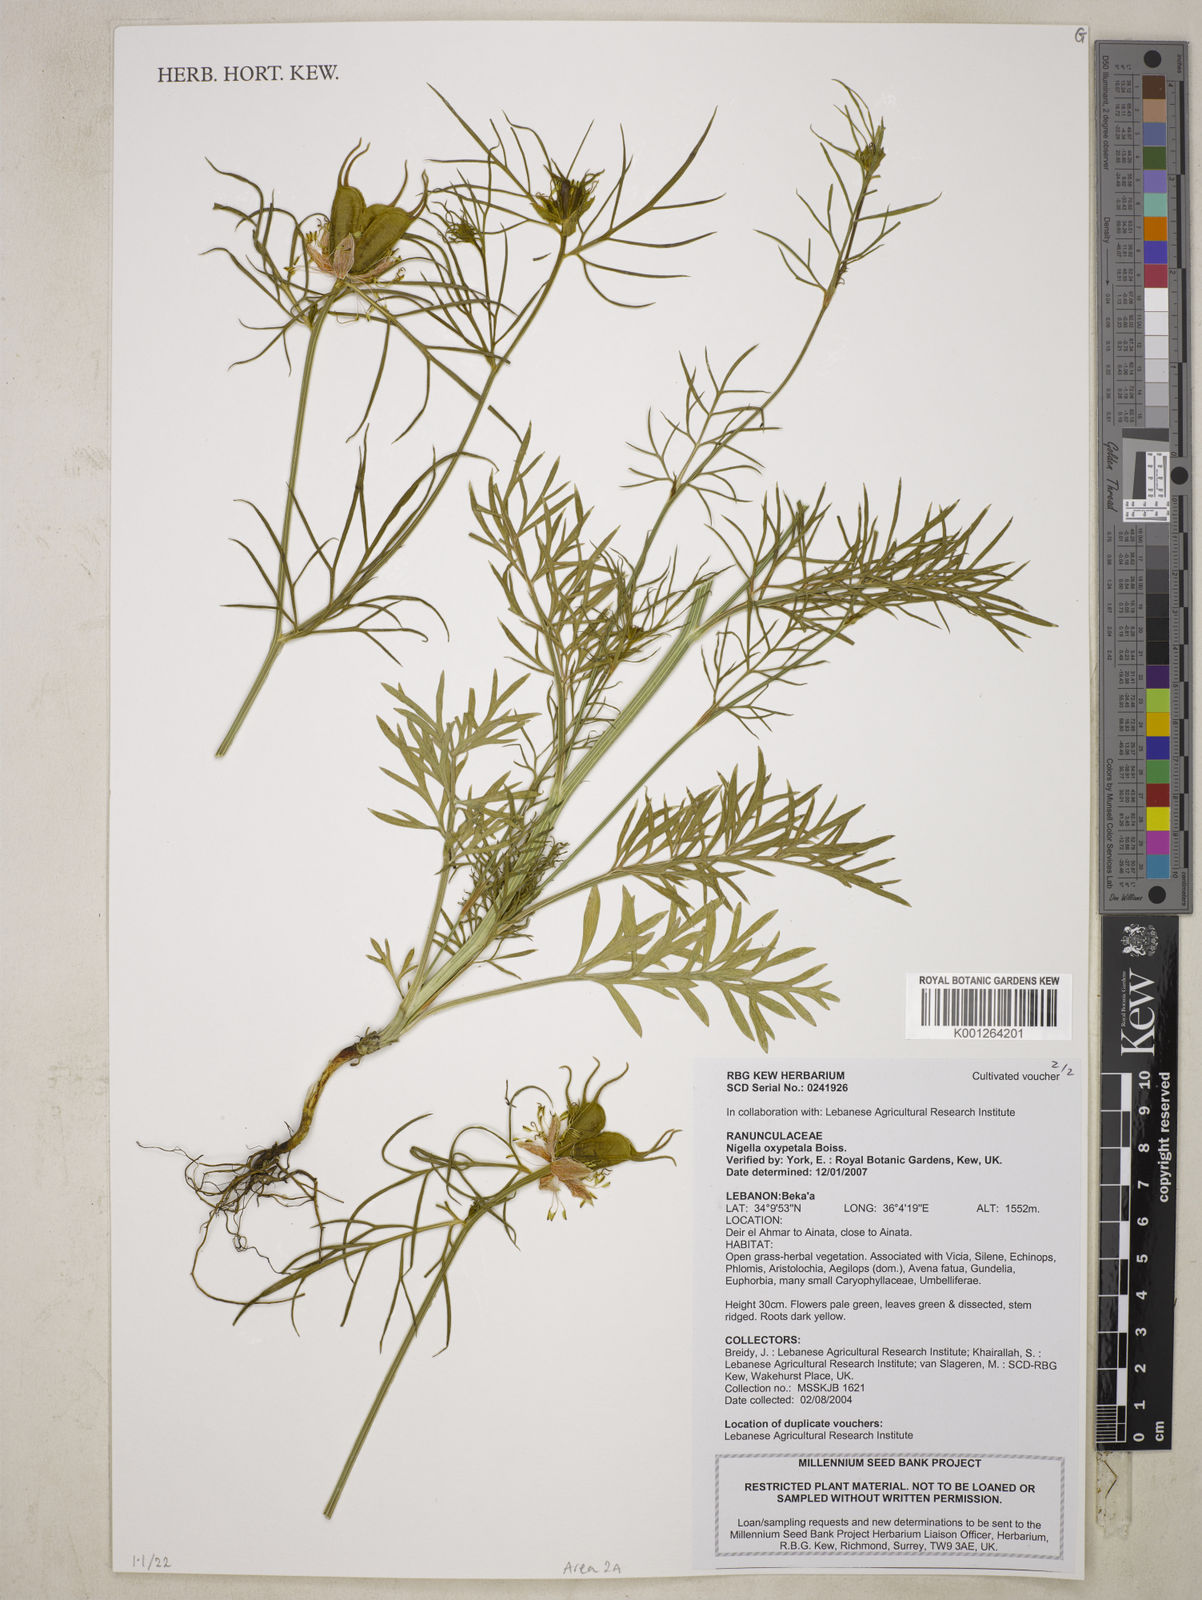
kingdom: Plantae
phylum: Tracheophyta
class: Magnoliopsida
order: Ranunculales
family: Ranunculaceae
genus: Nigella
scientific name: Nigella oxypetala
